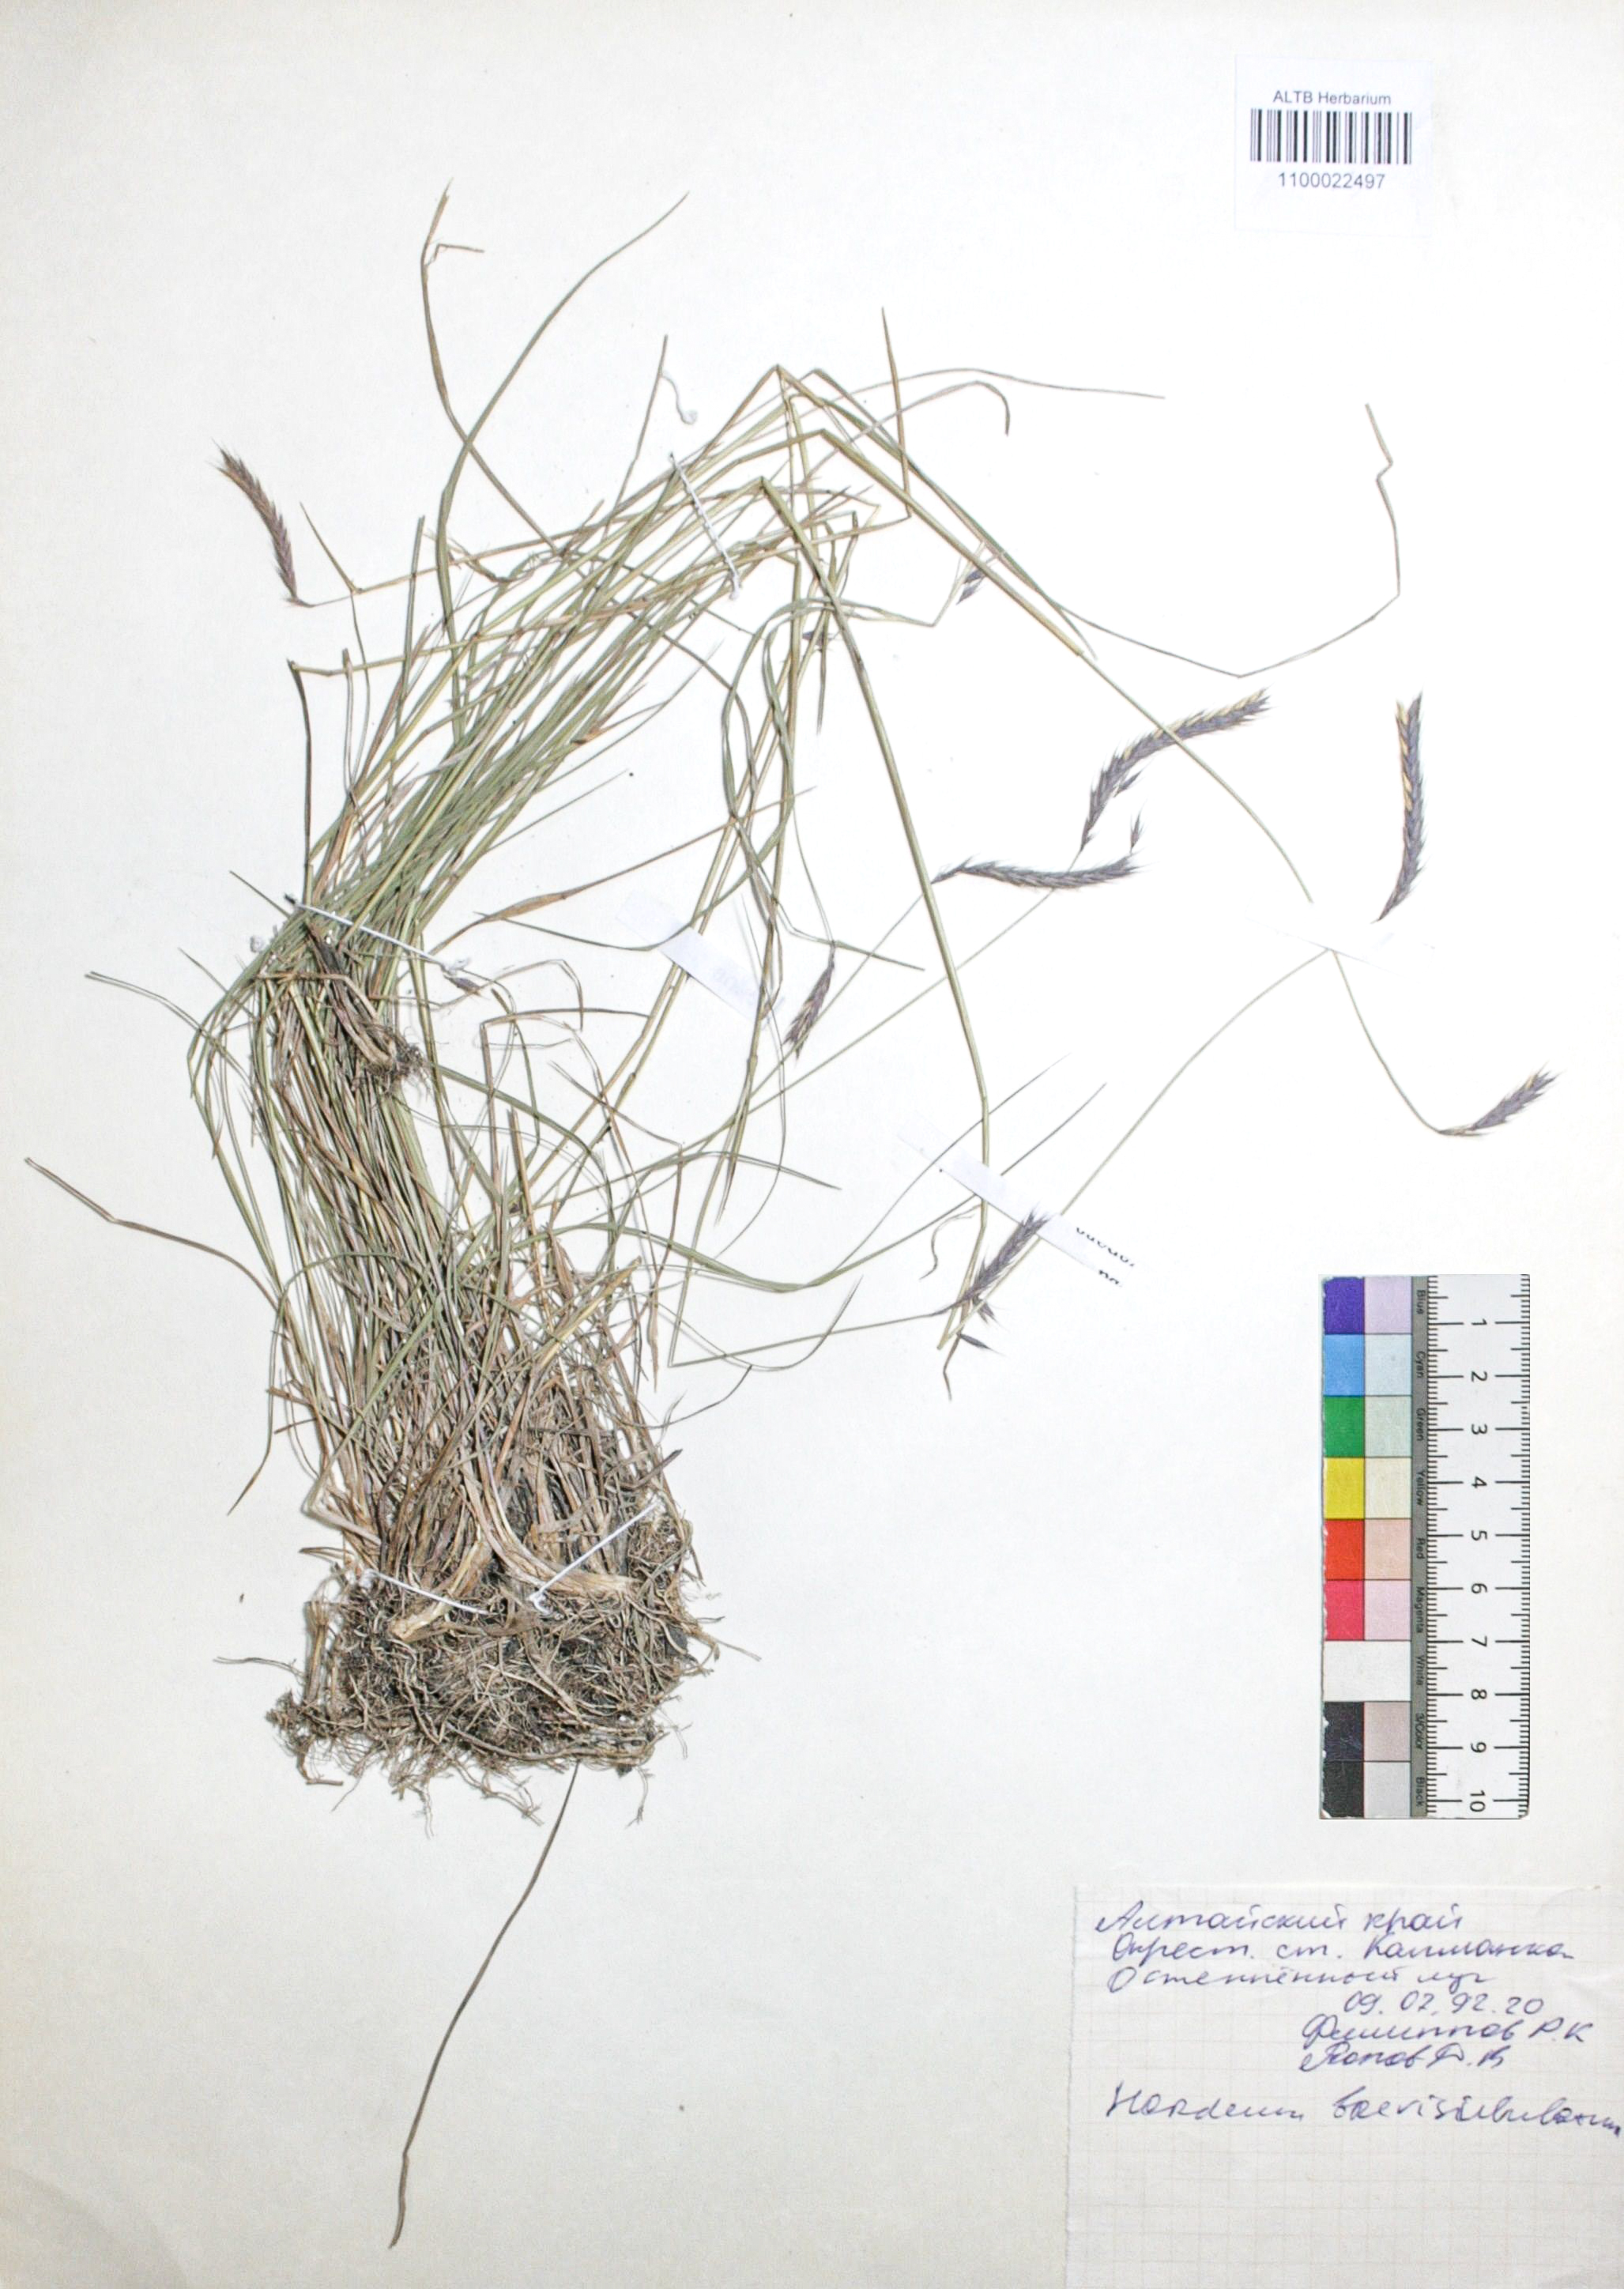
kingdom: Plantae
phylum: Tracheophyta
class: Liliopsida
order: Poales
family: Poaceae
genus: Hordeum
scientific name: Hordeum brevisubulatum
